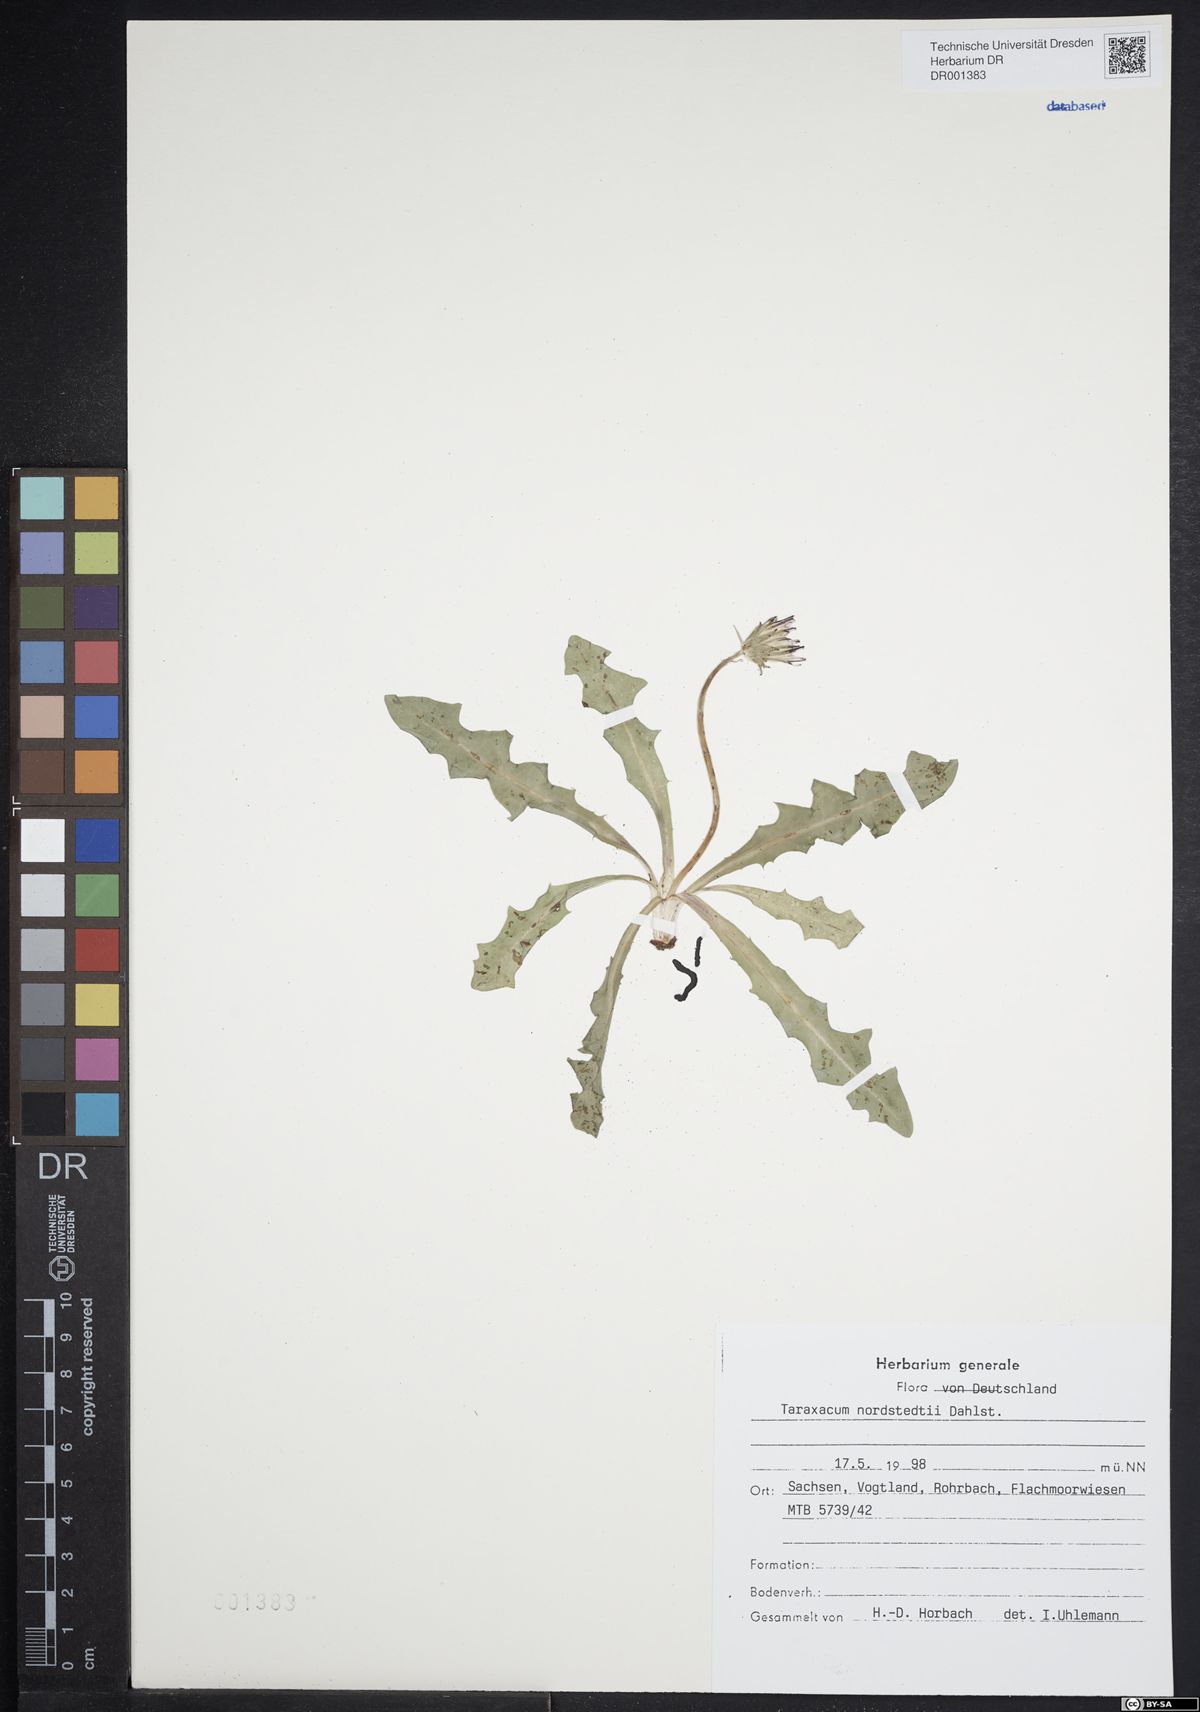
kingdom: Plantae
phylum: Tracheophyta
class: Magnoliopsida
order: Asterales
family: Asteraceae
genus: Taraxacum
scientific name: Taraxacum nordstedtii
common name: Nordstedt's dandelion
